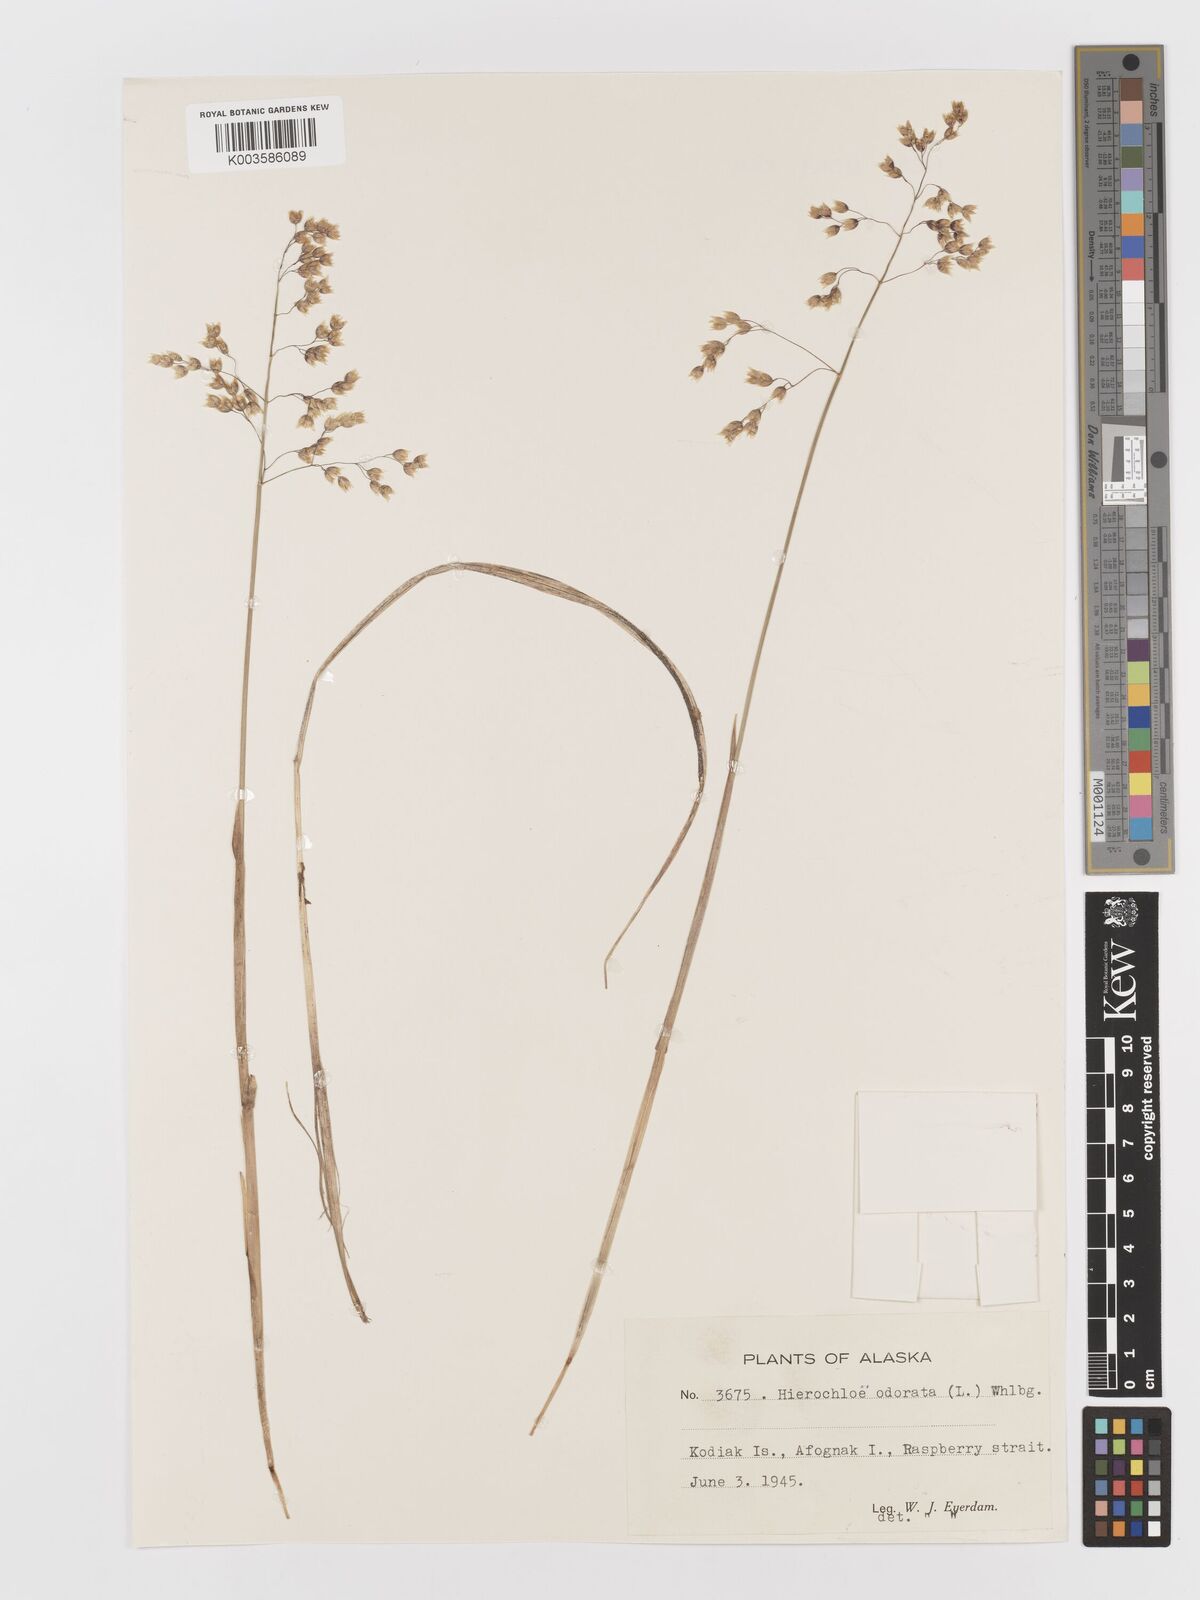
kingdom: Plantae
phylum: Tracheophyta
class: Liliopsida
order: Poales
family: Poaceae
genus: Anthoxanthum
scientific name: Anthoxanthum nitens
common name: Holy grass
